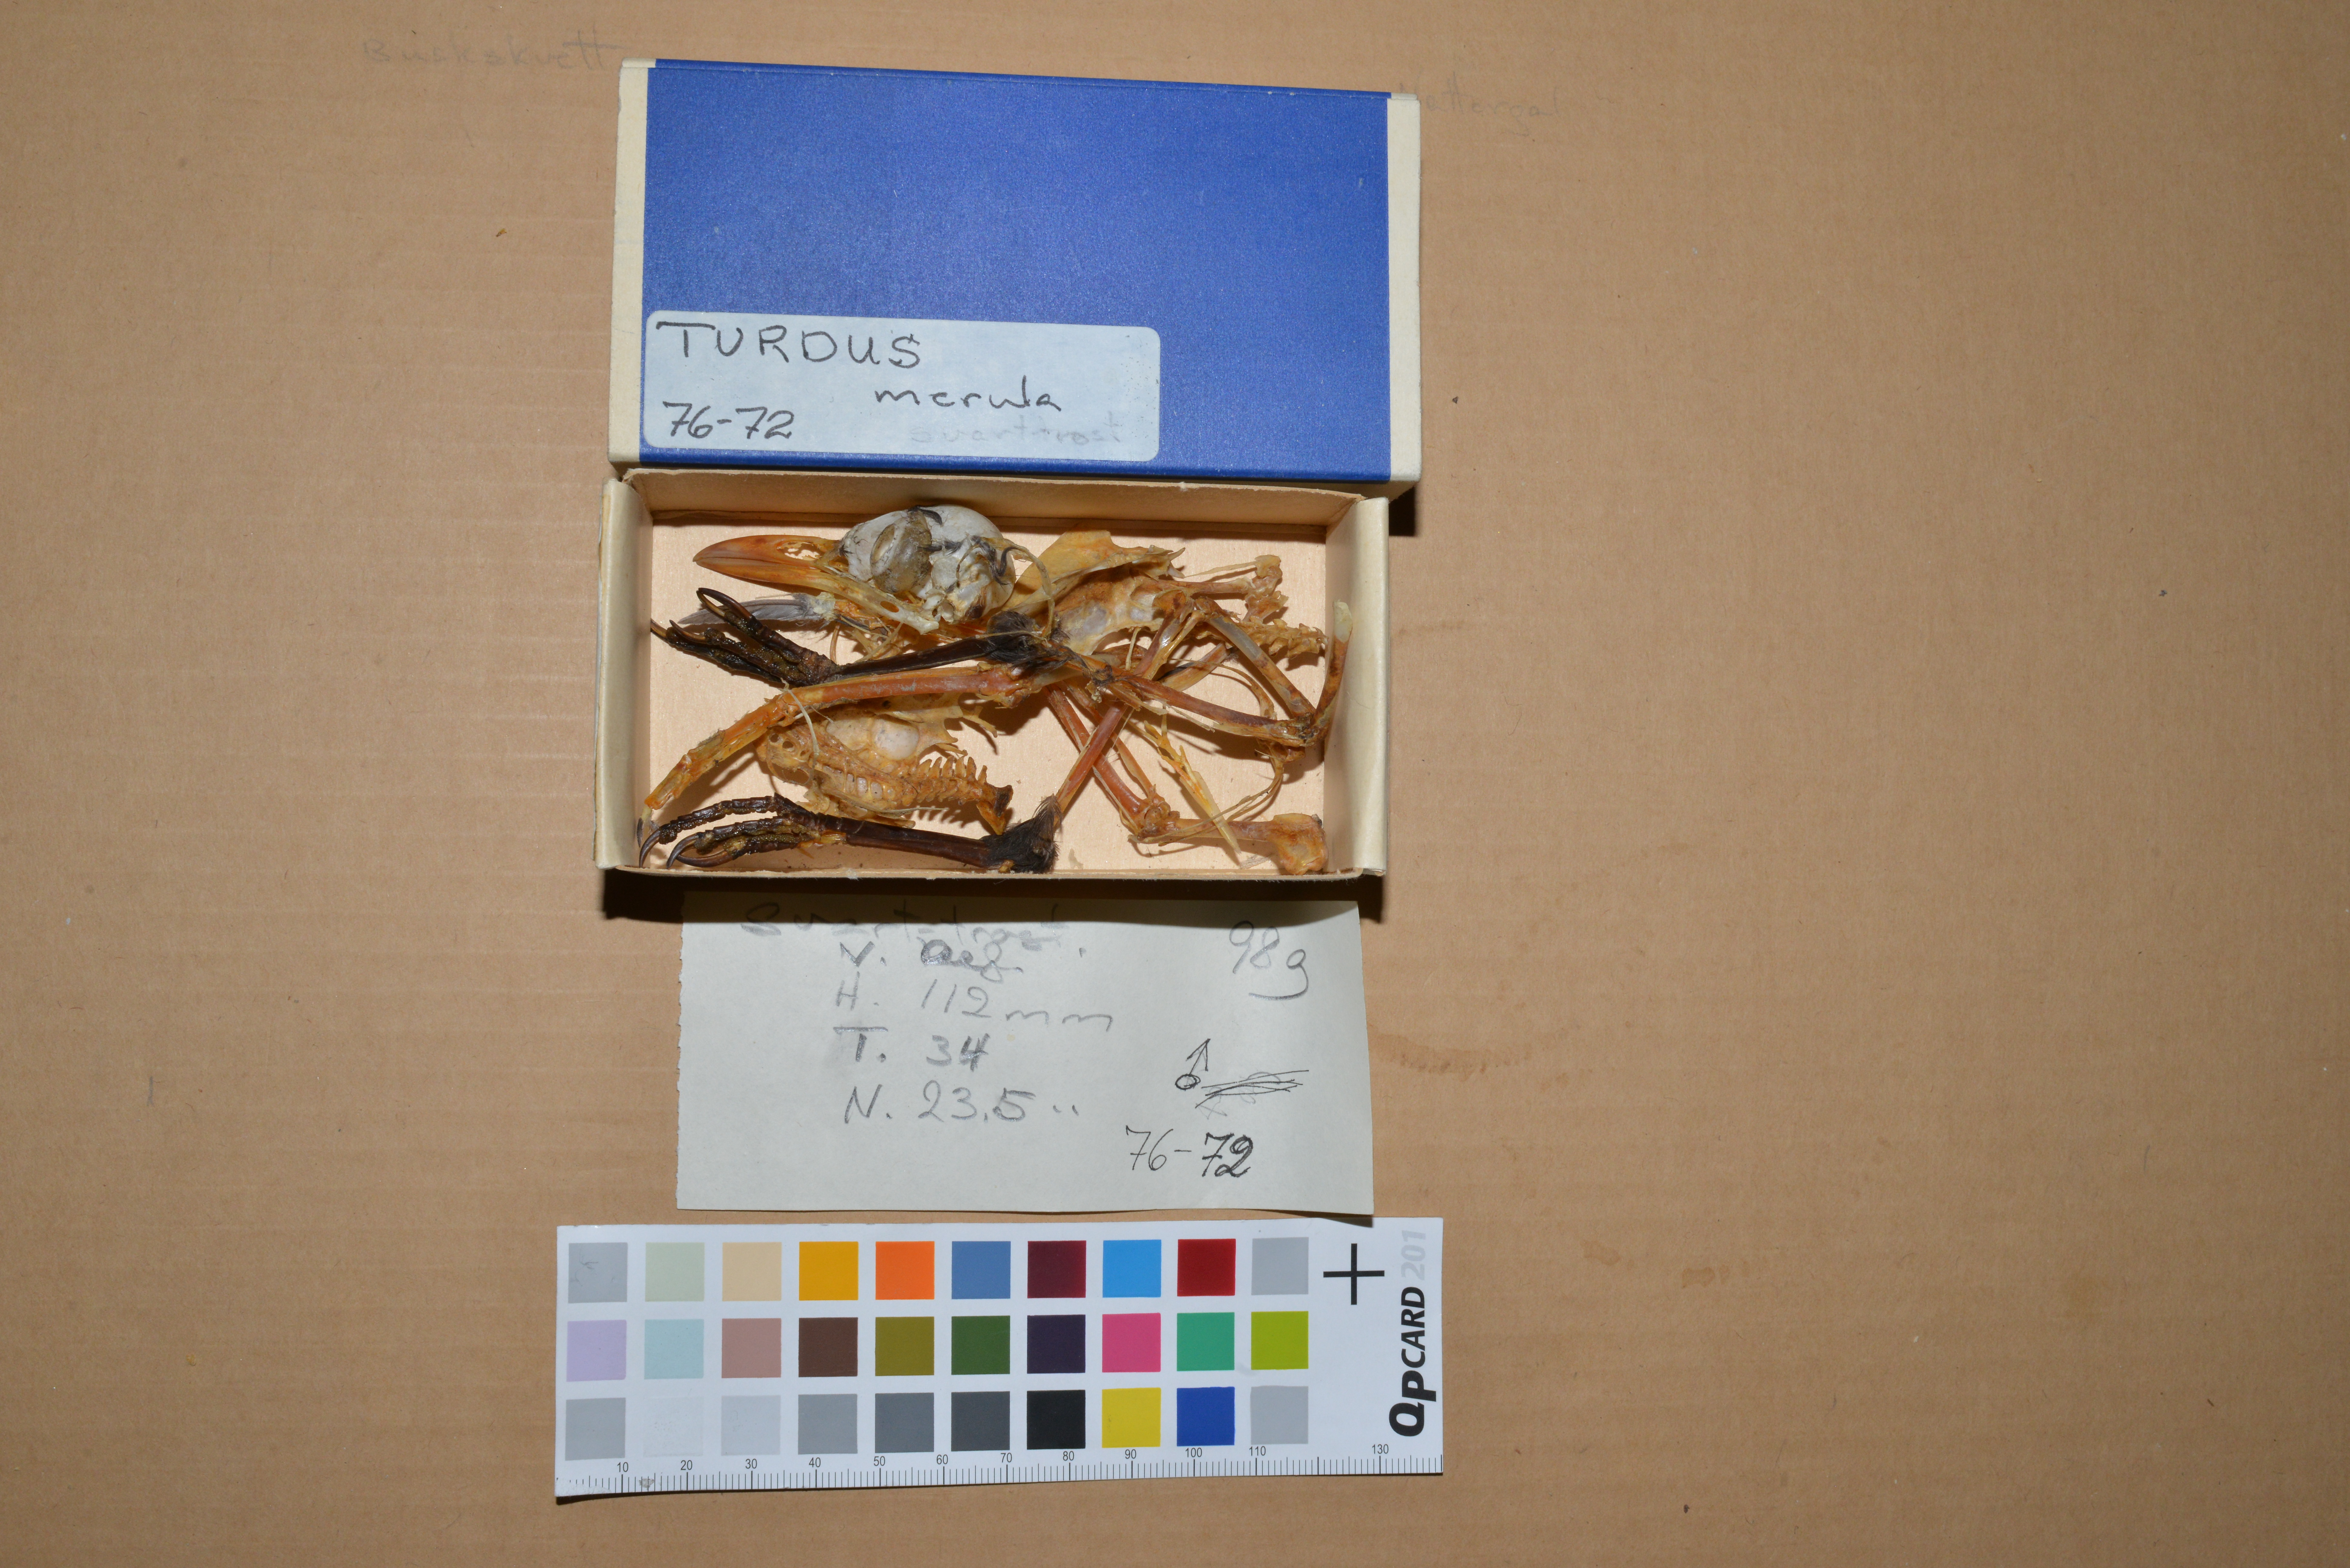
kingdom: Animalia
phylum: Chordata
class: Aves
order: Passeriformes
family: Turdidae
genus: Turdus
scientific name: Turdus merula
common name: Common blackbird
